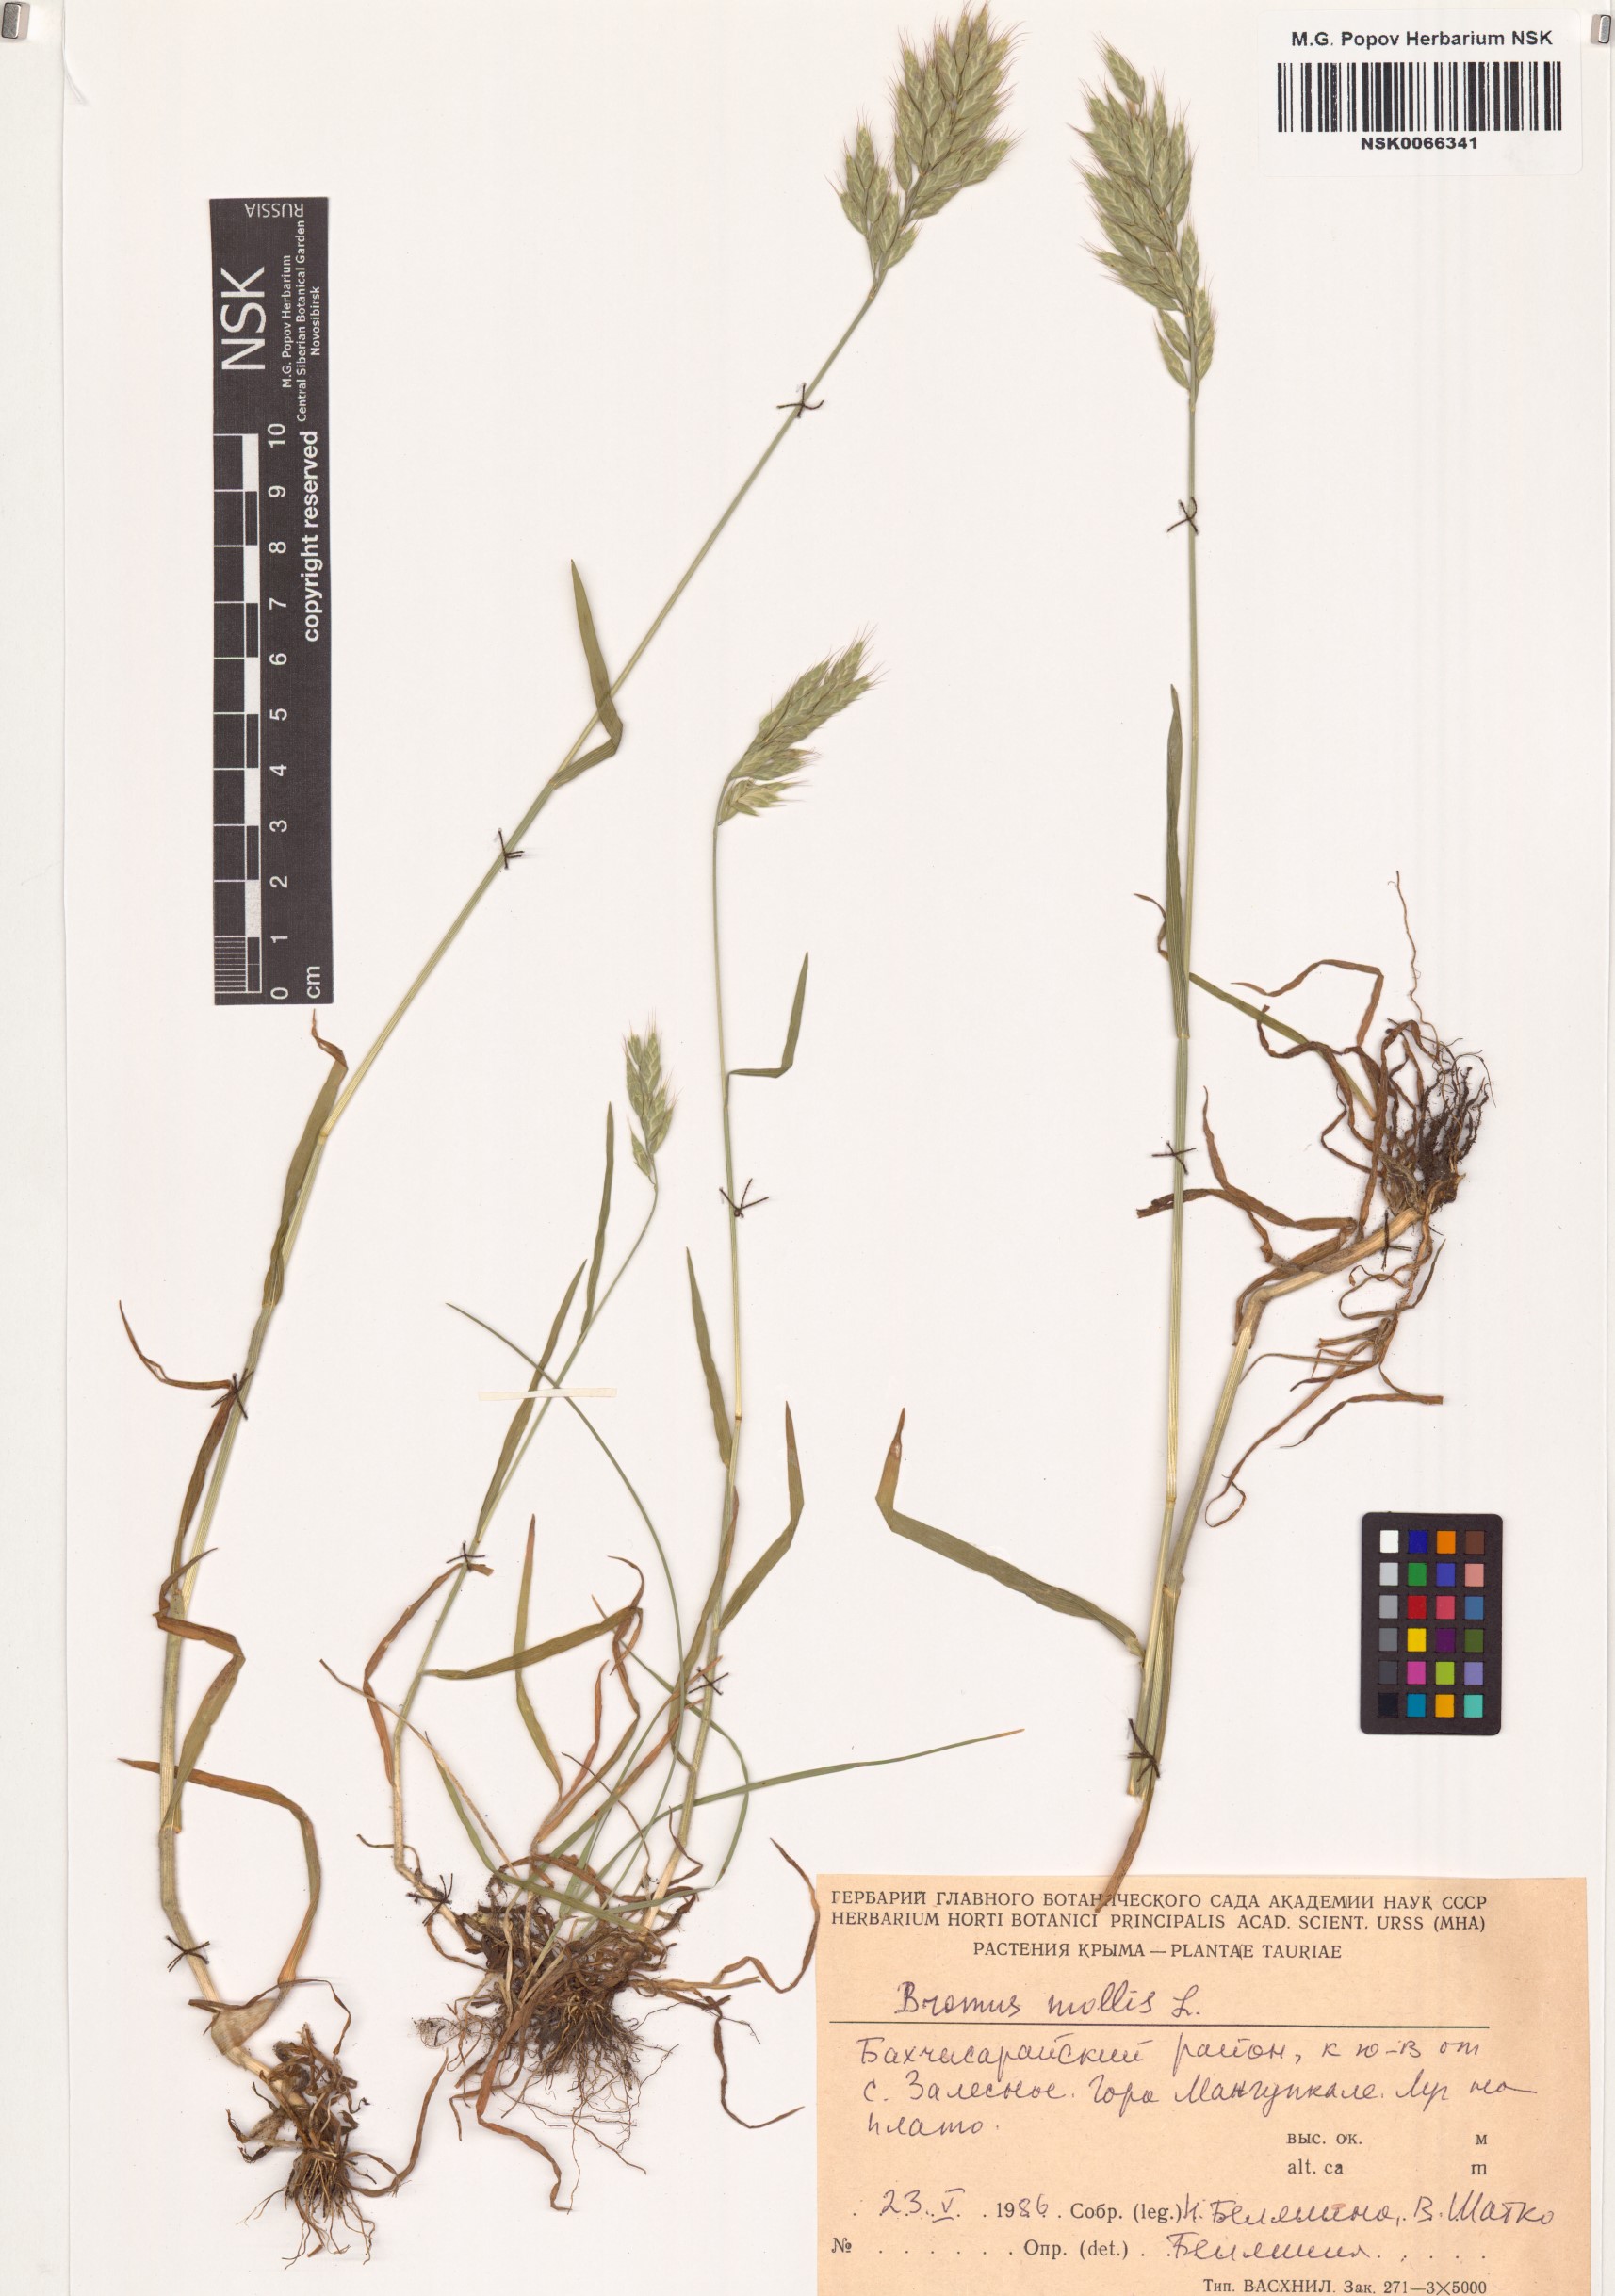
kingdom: Plantae
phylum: Tracheophyta
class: Liliopsida
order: Poales
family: Poaceae
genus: Bromus
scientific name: Bromus hordeaceus
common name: Soft brome
